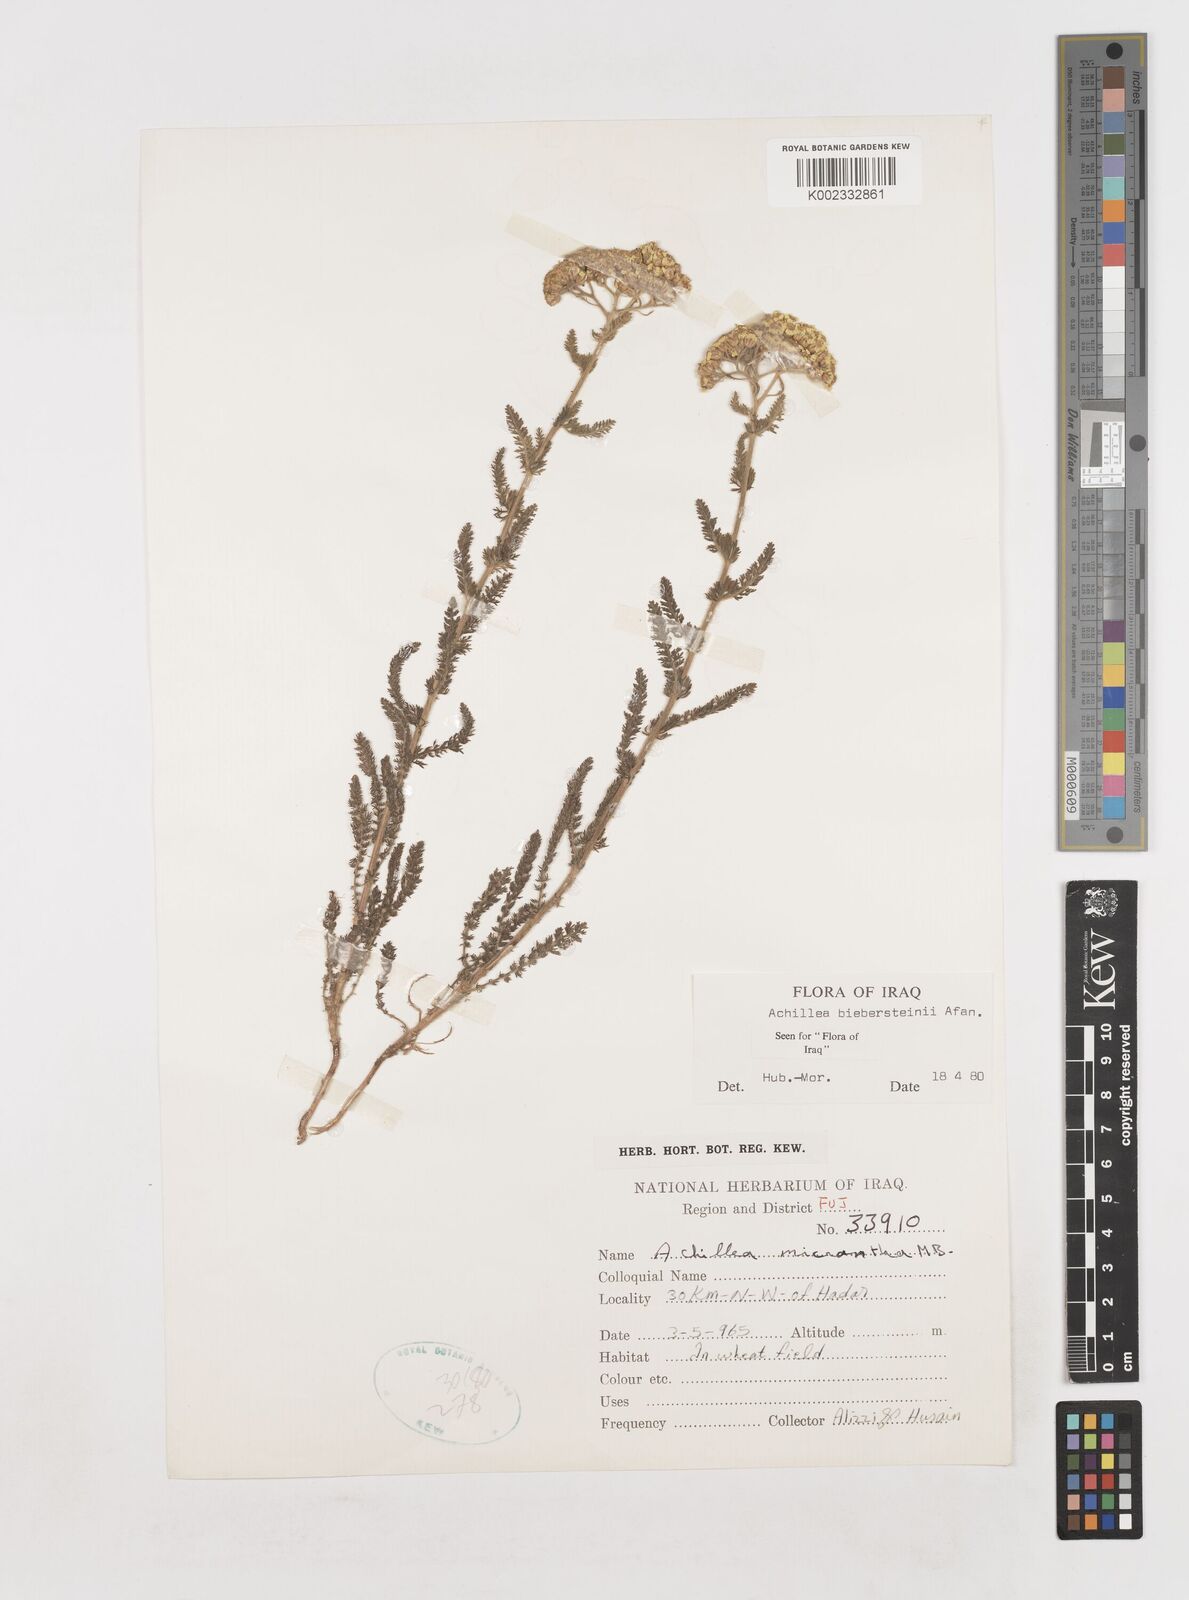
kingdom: Plantae
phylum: Tracheophyta
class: Magnoliopsida
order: Asterales
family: Asteraceae
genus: Achillea
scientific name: Achillea arabica
